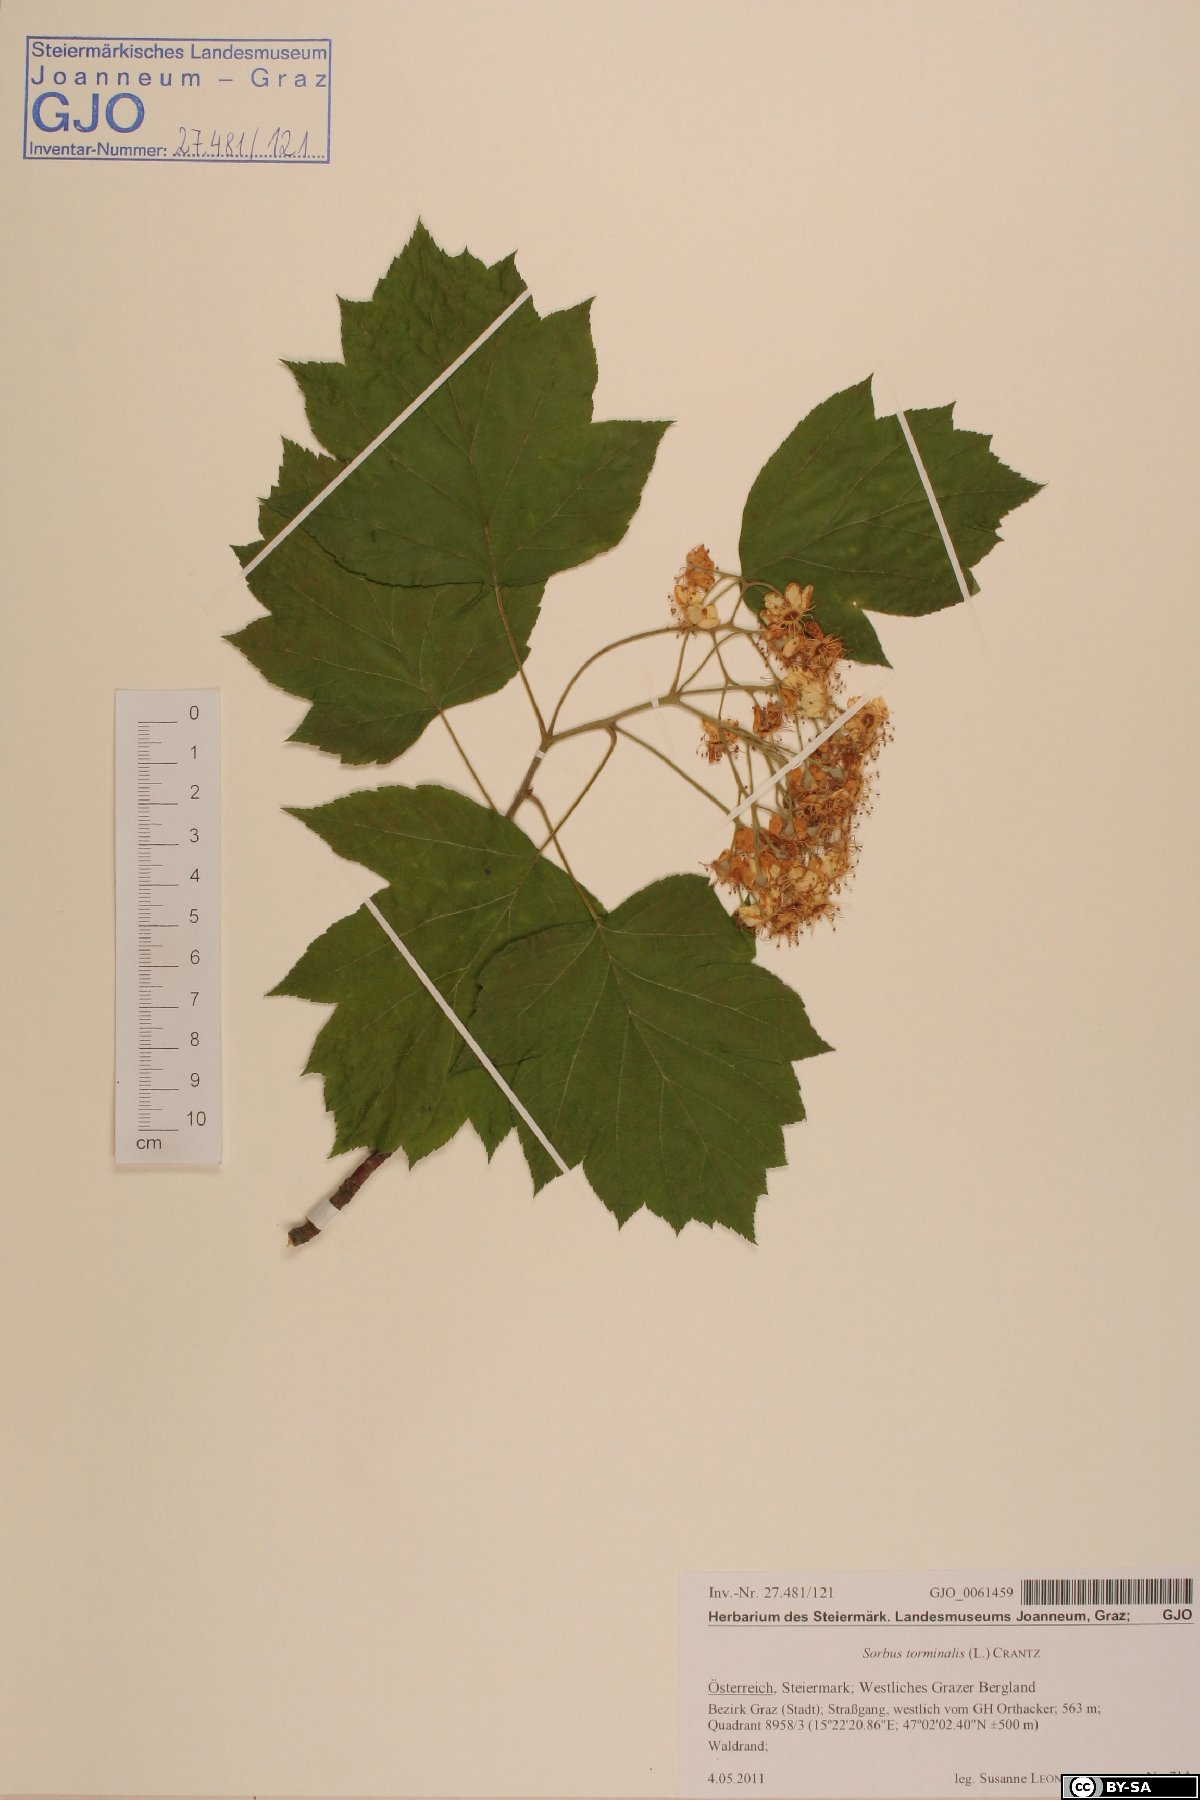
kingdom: Plantae
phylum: Tracheophyta
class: Magnoliopsida
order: Rosales
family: Rosaceae
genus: Torminalis
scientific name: Torminalis glaberrima
